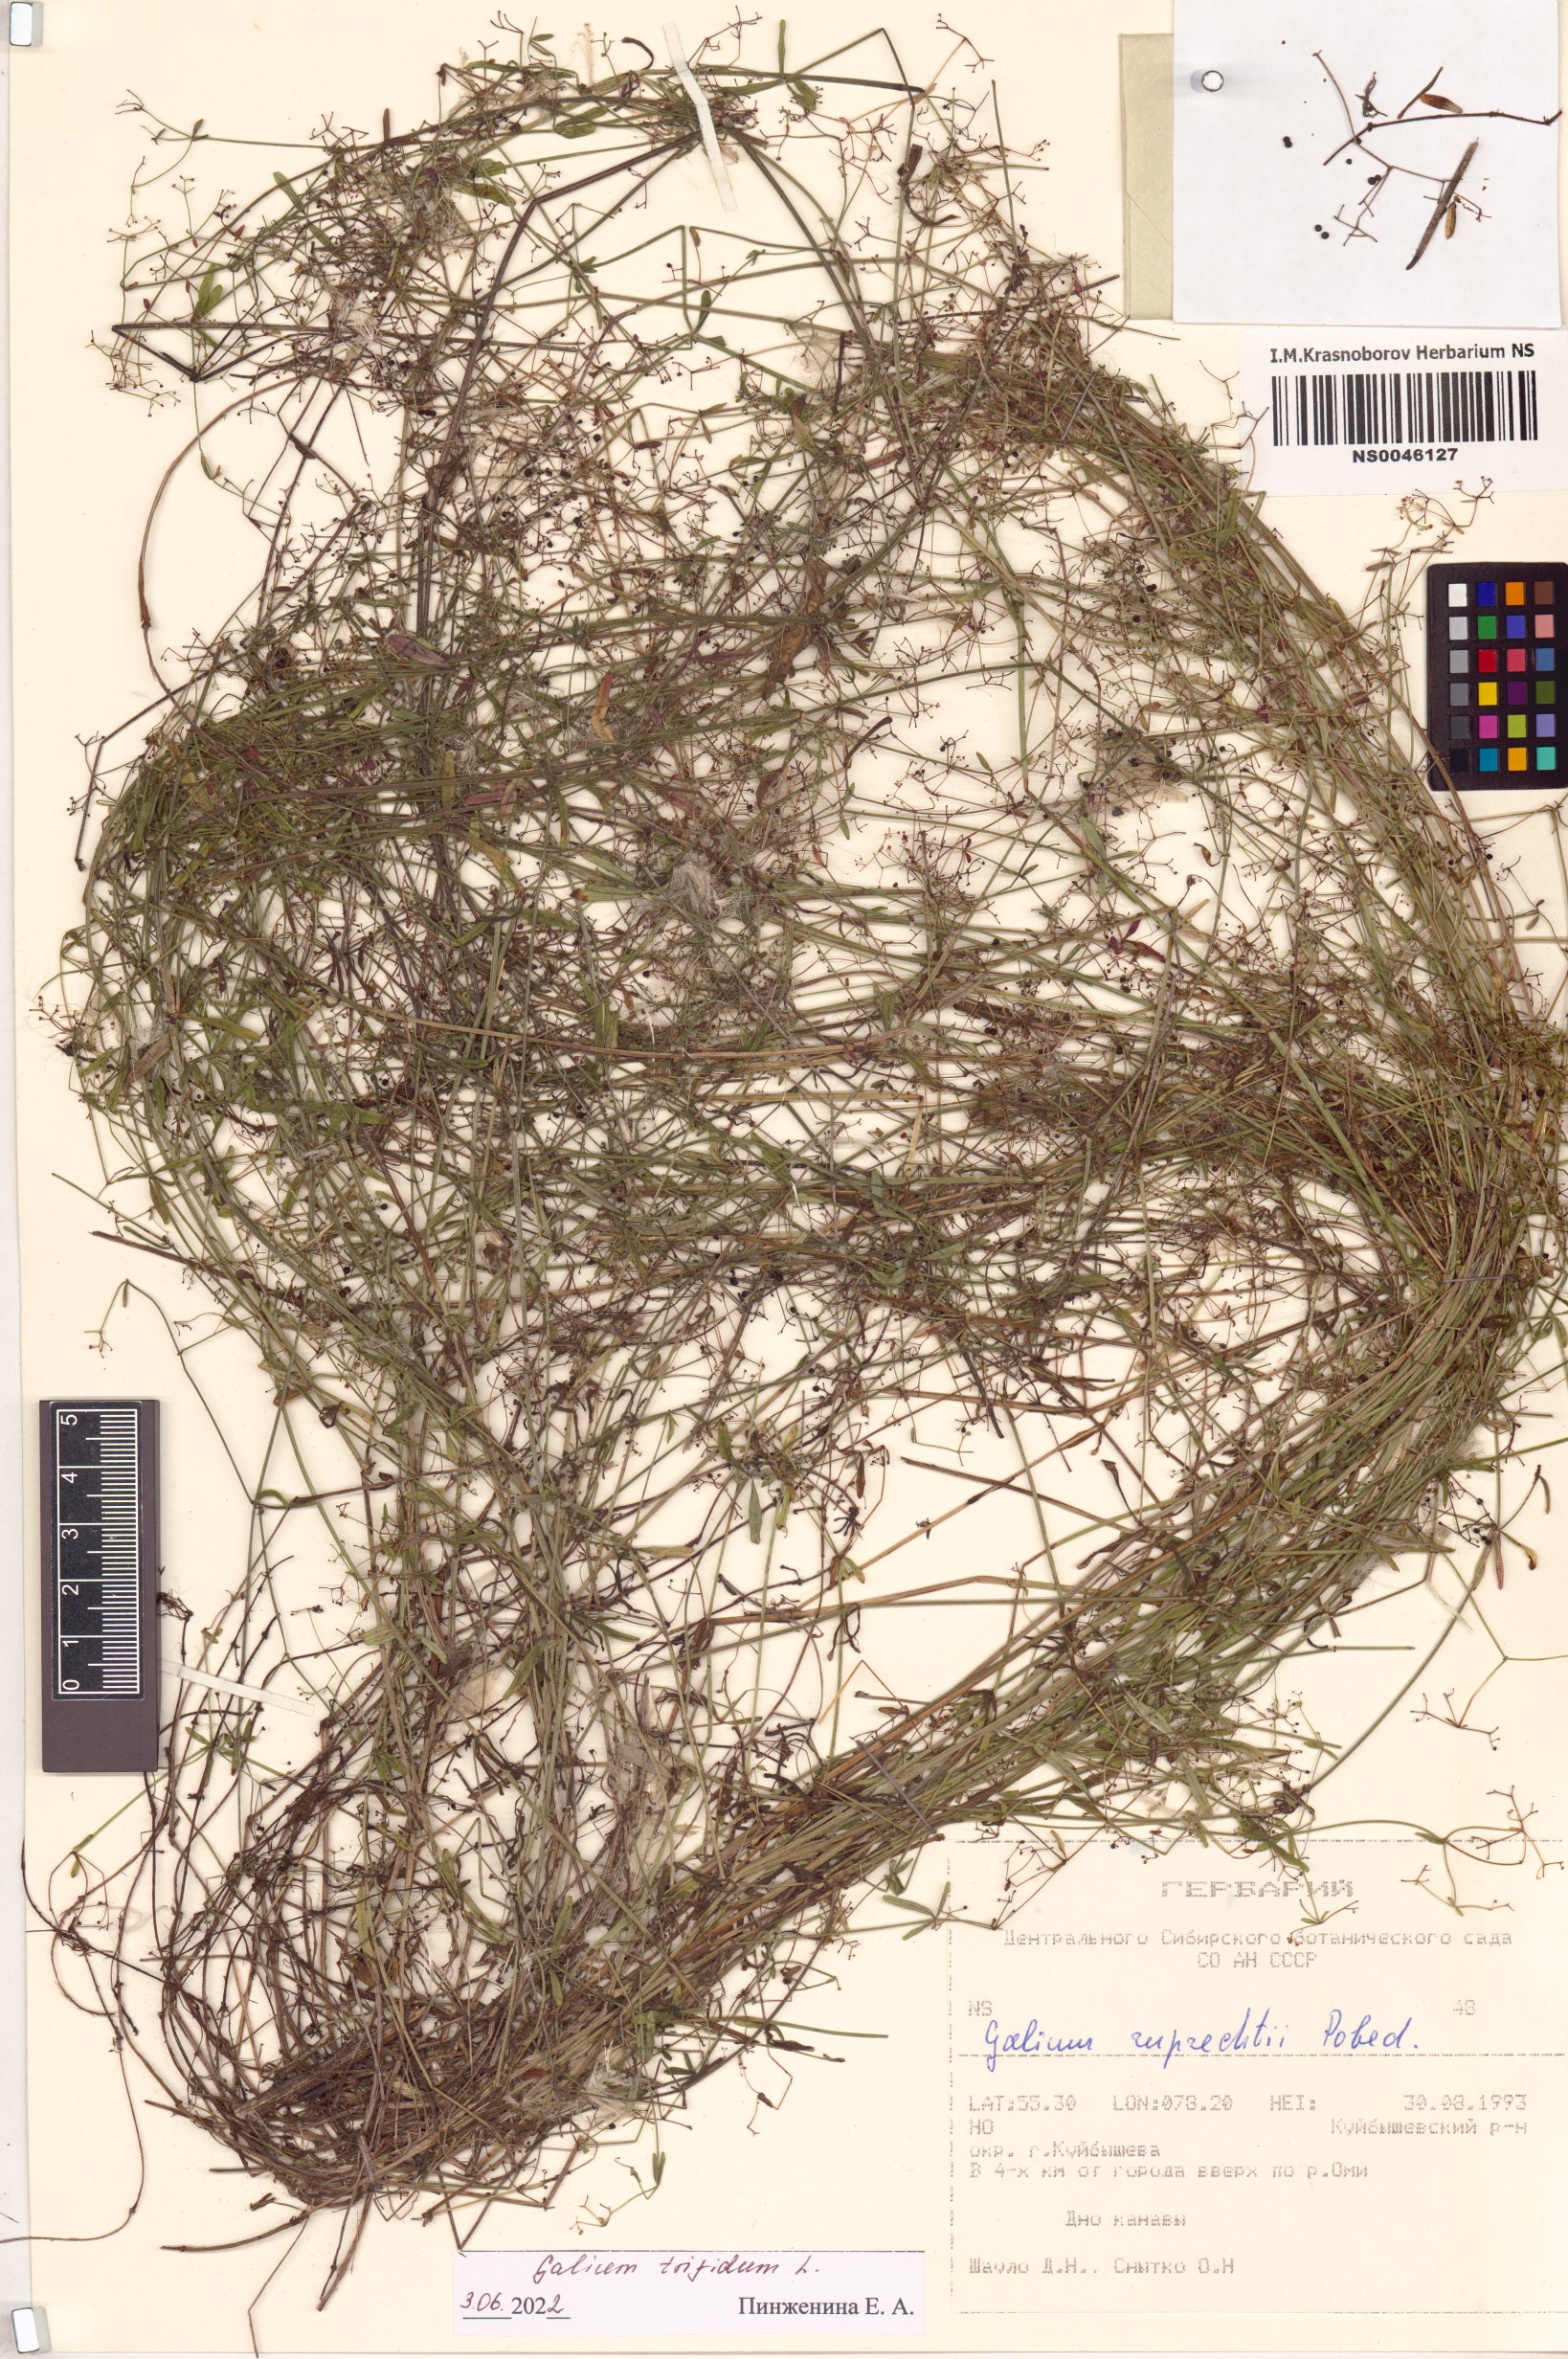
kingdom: Plantae
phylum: Tracheophyta
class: Magnoliopsida
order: Gentianales
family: Rubiaceae
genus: Galium
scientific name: Galium trifidum
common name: Small bedstraw
